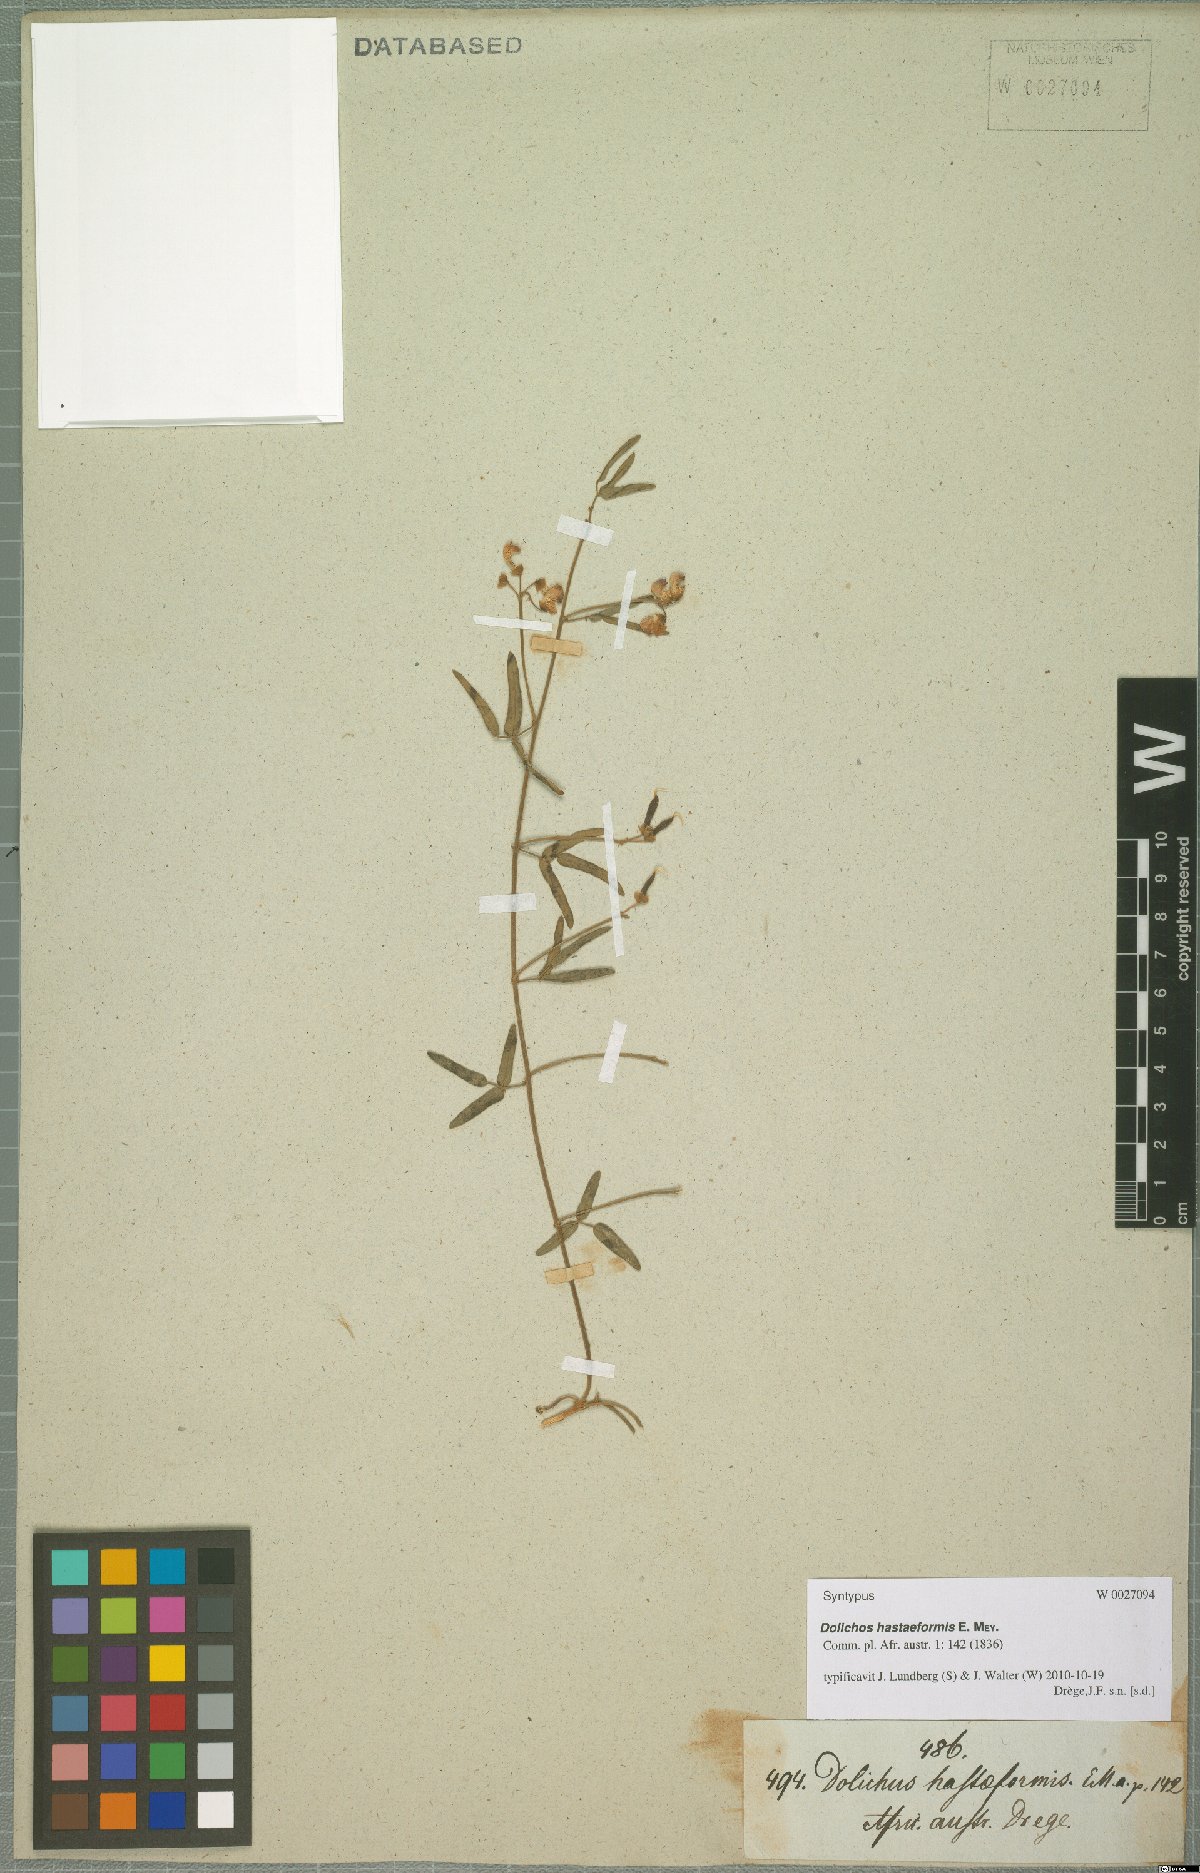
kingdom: Plantae
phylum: Tracheophyta
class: Magnoliopsida
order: Fabales
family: Fabaceae
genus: Dolichos
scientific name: Dolichos hastiformis
